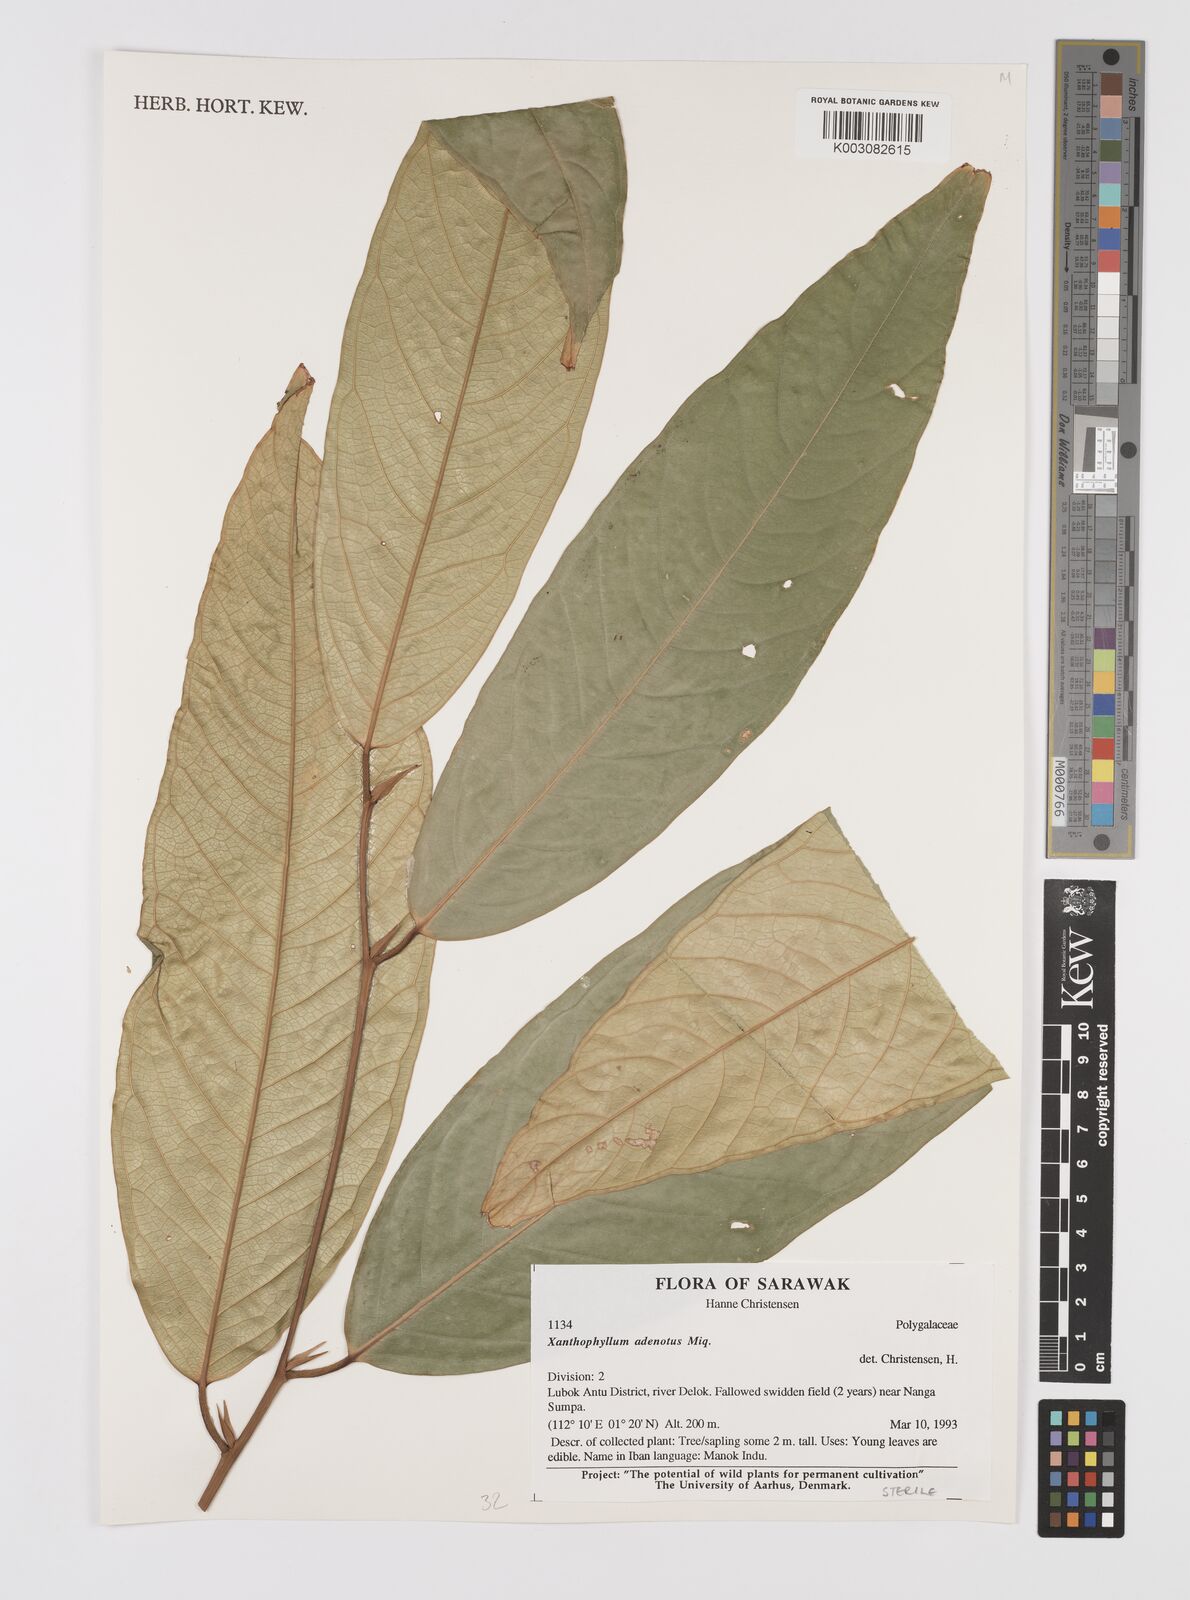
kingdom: Plantae
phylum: Tracheophyta
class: Magnoliopsida
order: Fabales
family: Polygalaceae
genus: Xanthophyllum
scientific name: Xanthophyllum adenotus
